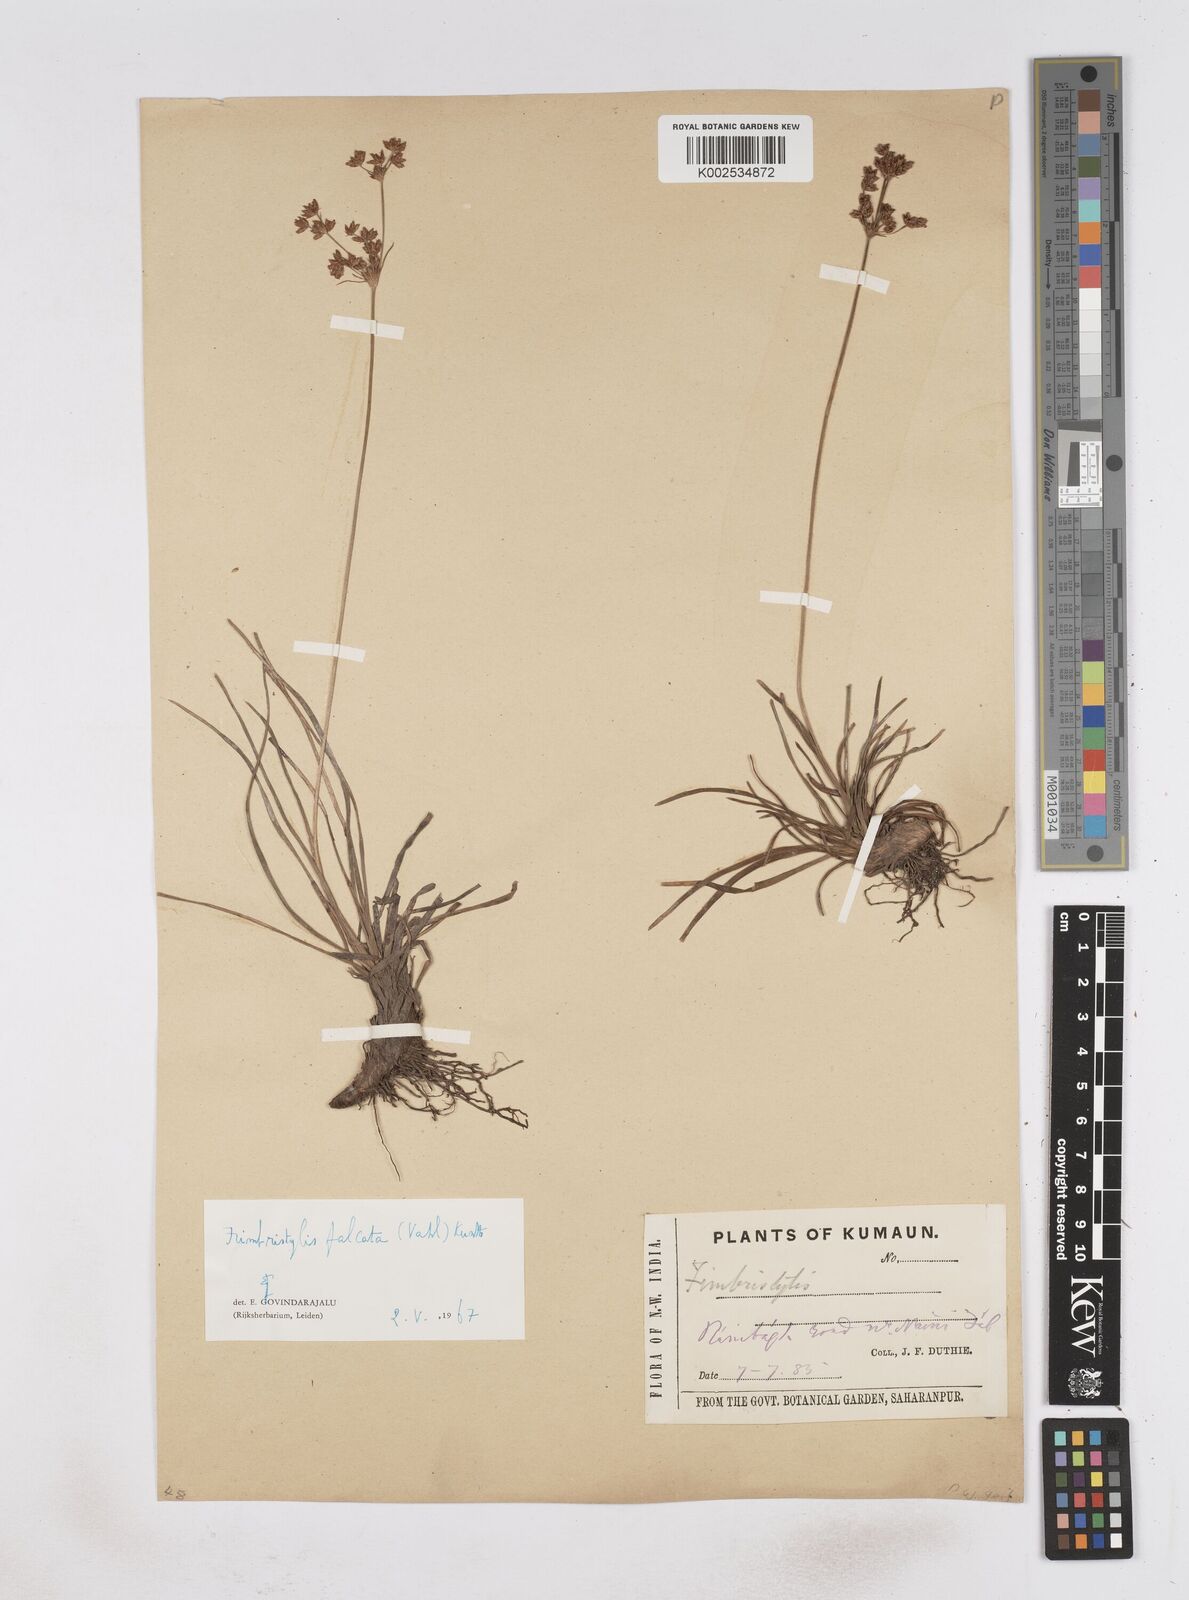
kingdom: Plantae
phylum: Tracheophyta
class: Liliopsida
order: Poales
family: Cyperaceae
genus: Fimbristylis
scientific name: Fimbristylis falcata
